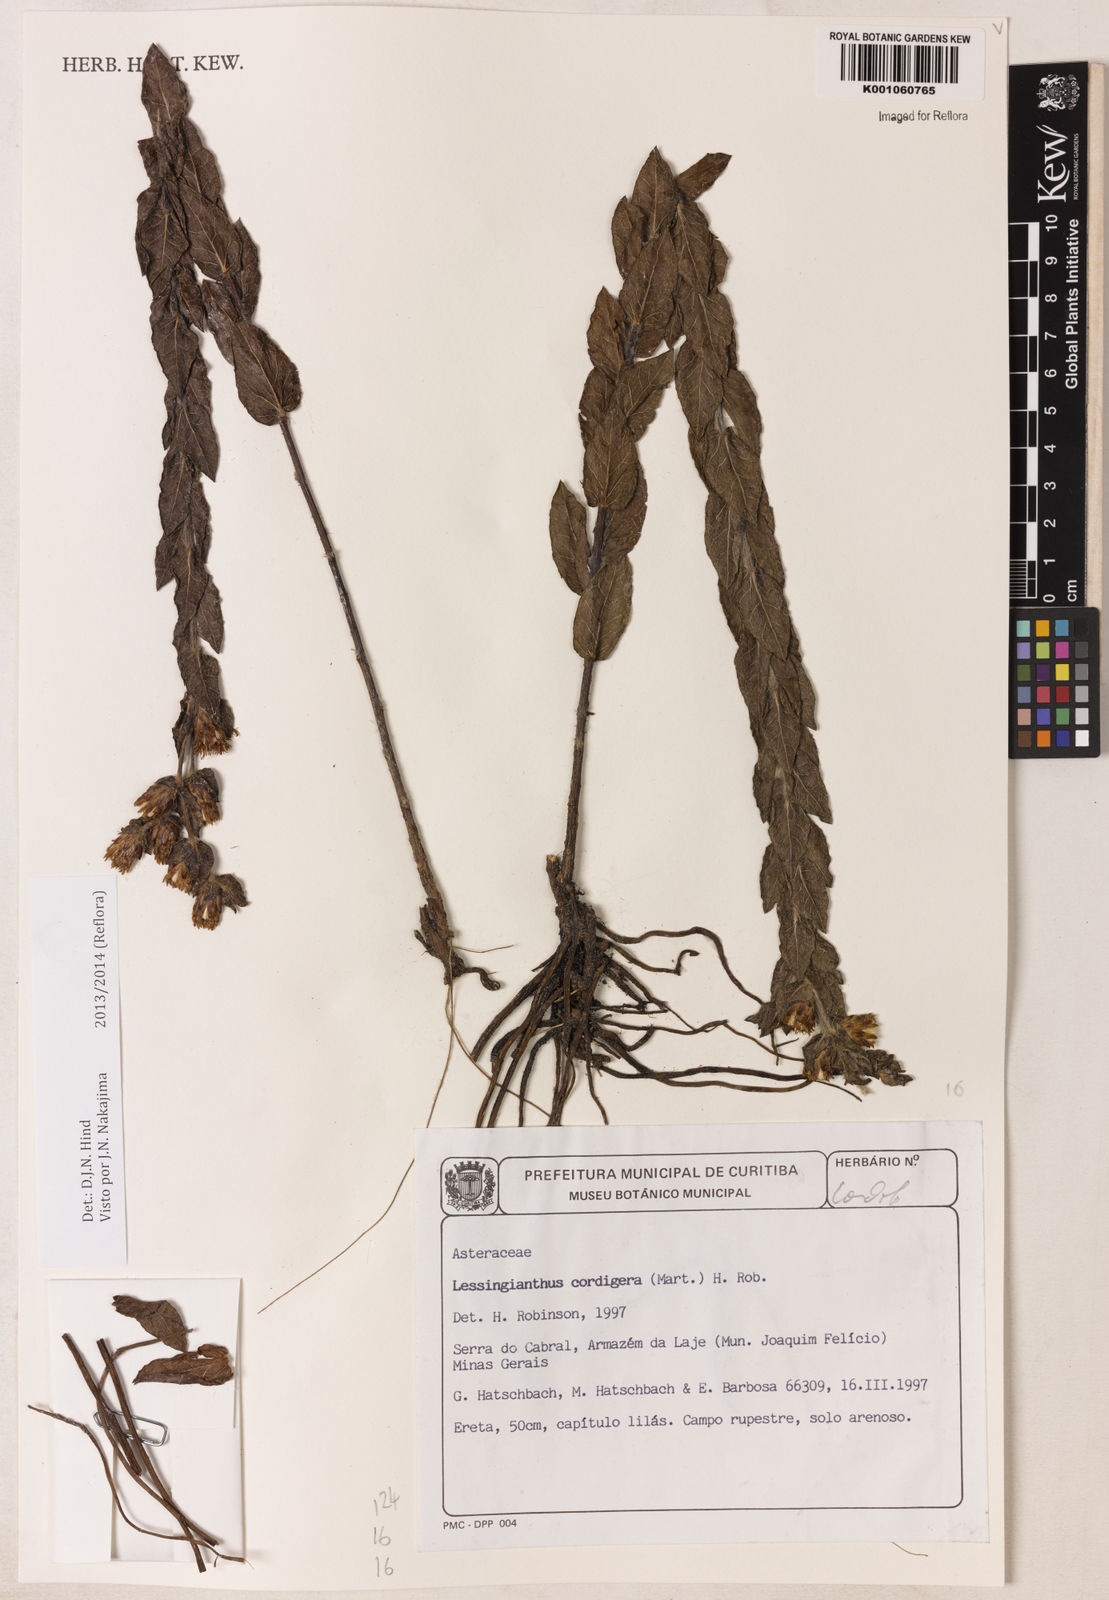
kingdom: Plantae
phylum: Tracheophyta
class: Magnoliopsida
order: Asterales
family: Asteraceae
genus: Lepidaploa
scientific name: Lepidaploa lilacina
